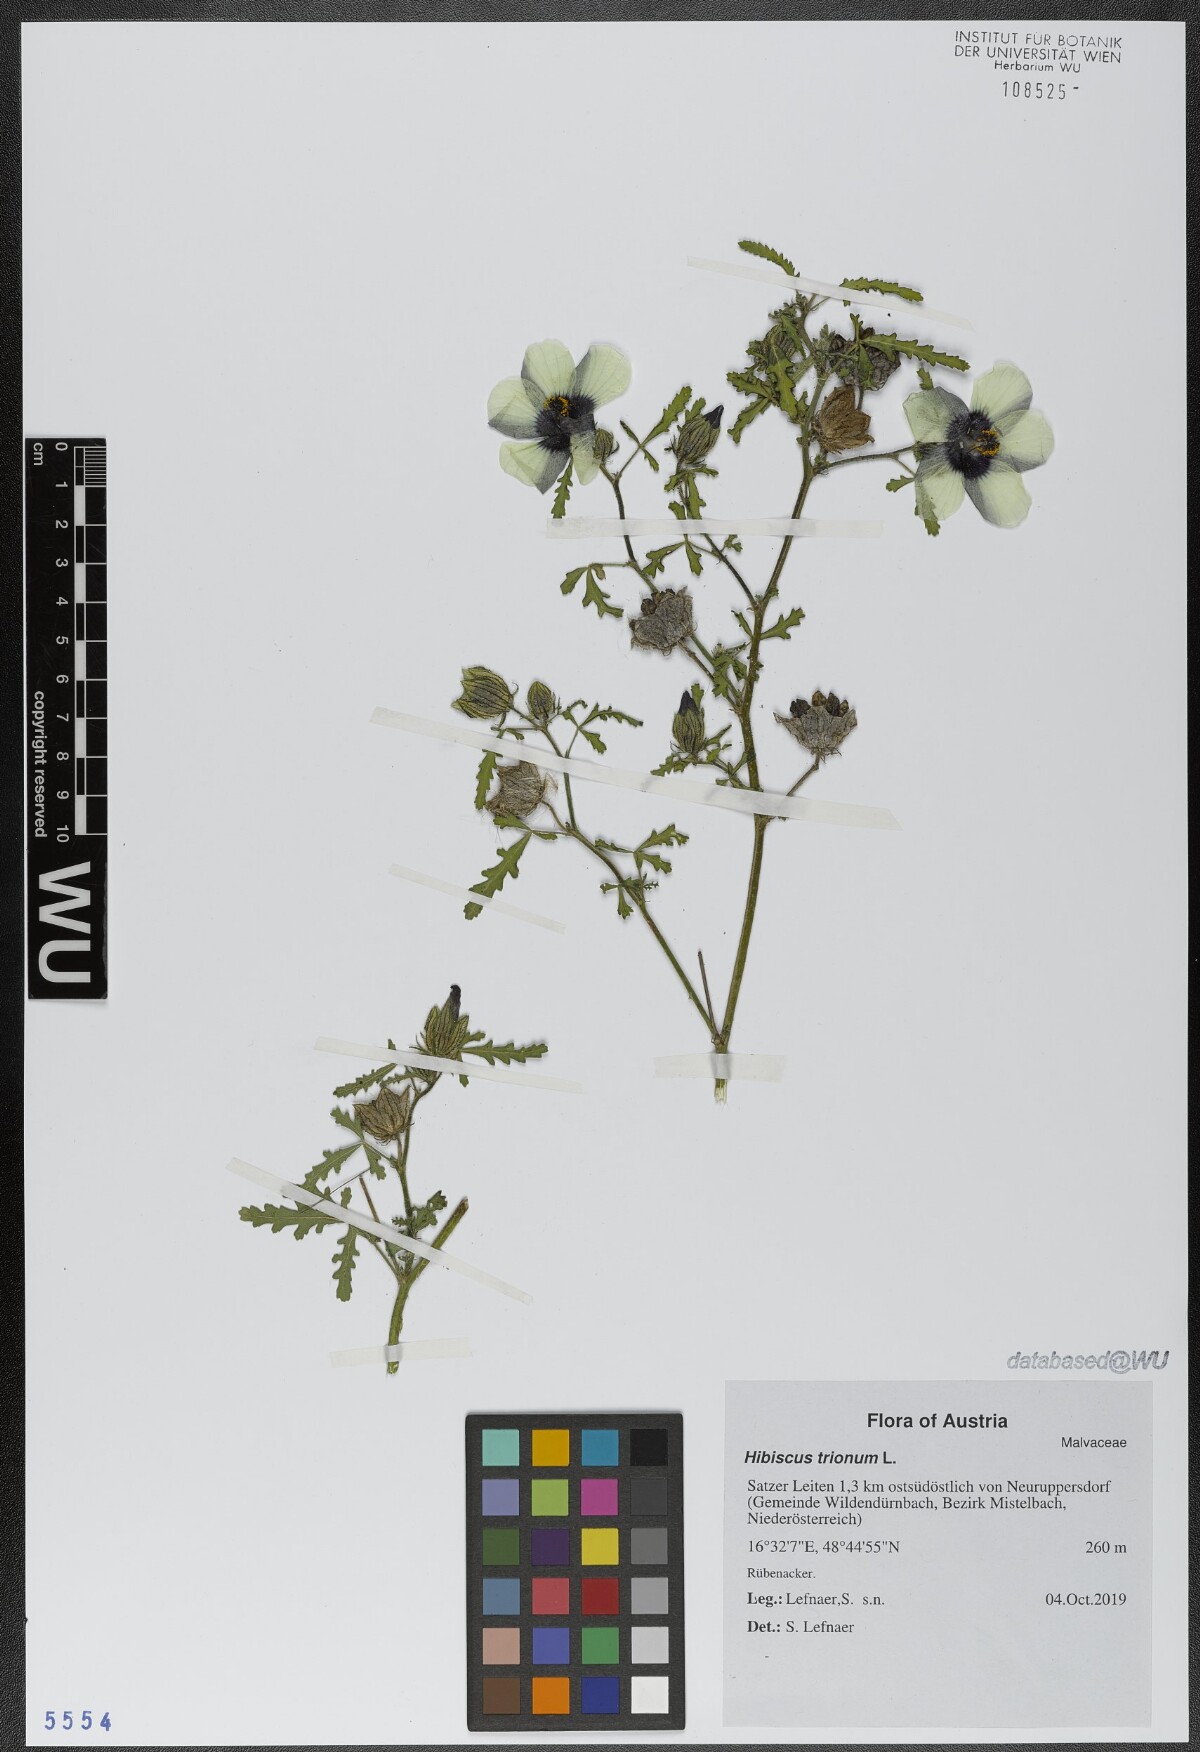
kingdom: Plantae
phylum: Tracheophyta
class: Magnoliopsida
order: Malvales
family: Malvaceae
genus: Hibiscus
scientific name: Hibiscus trionum
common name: Bladder ketmia
